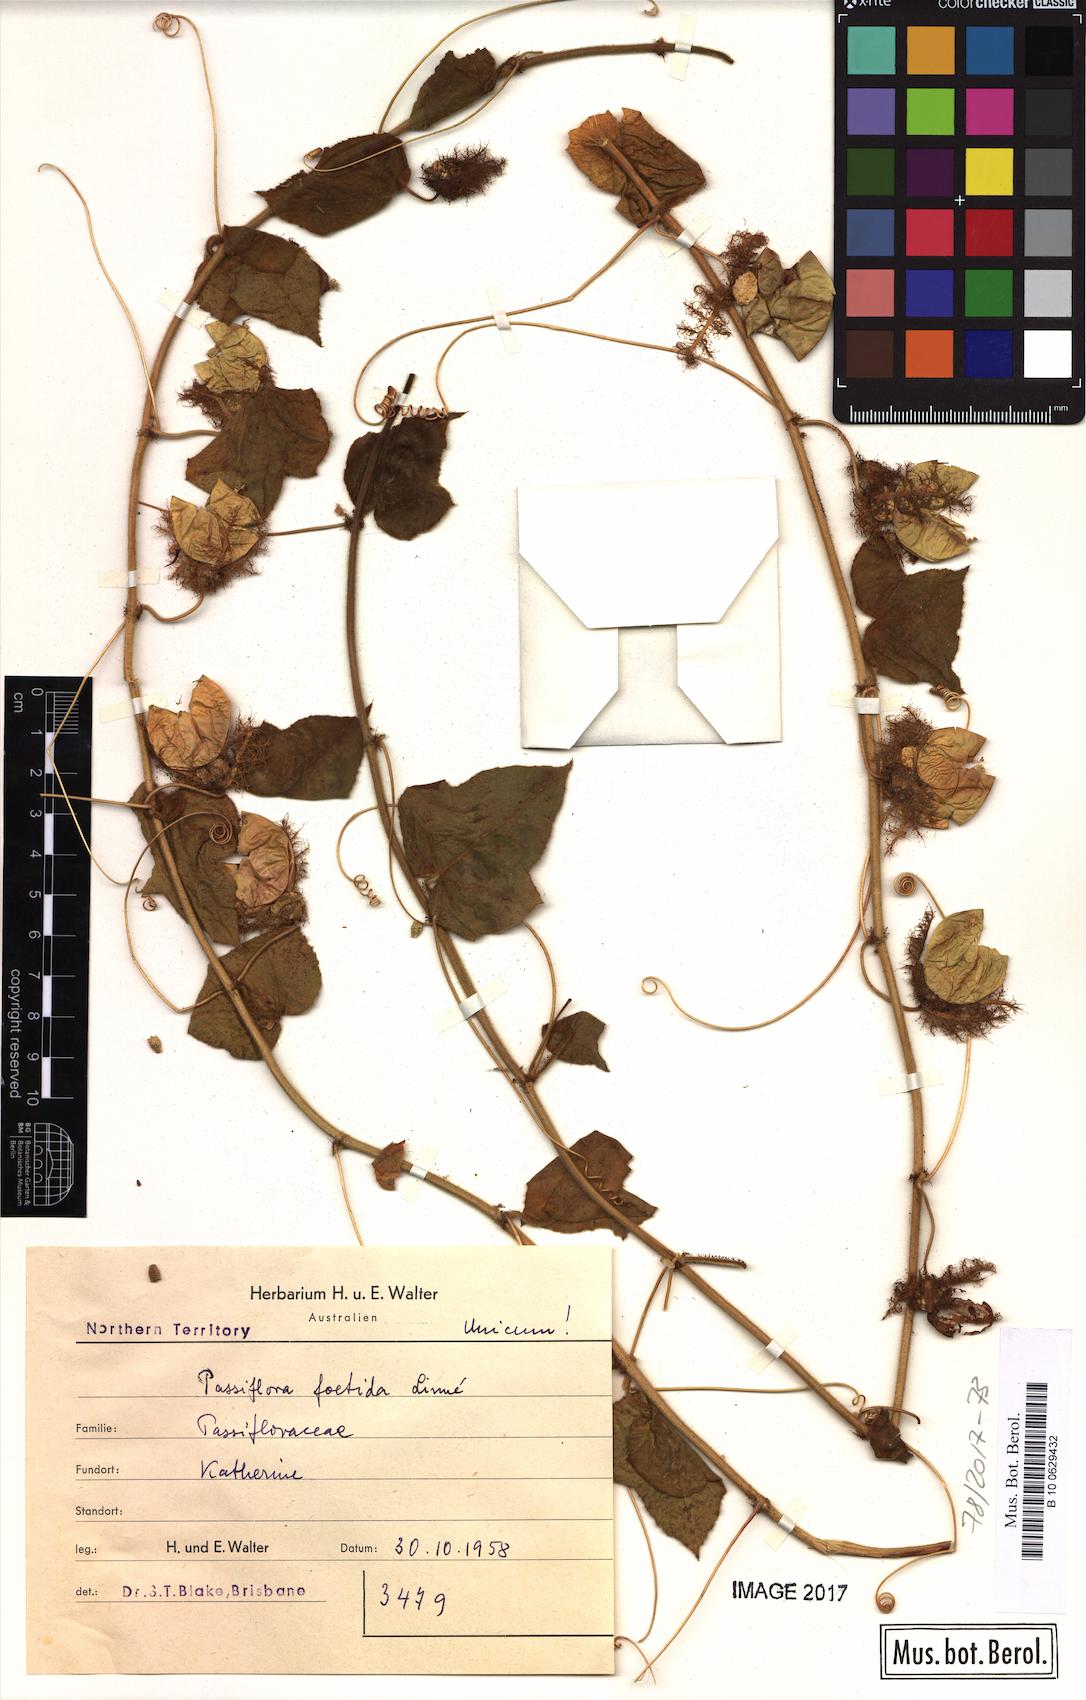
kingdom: Plantae
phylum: Tracheophyta
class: Magnoliopsida
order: Malpighiales
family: Passifloraceae
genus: Passiflora
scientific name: Passiflora foetida
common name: Fetid passionflower
